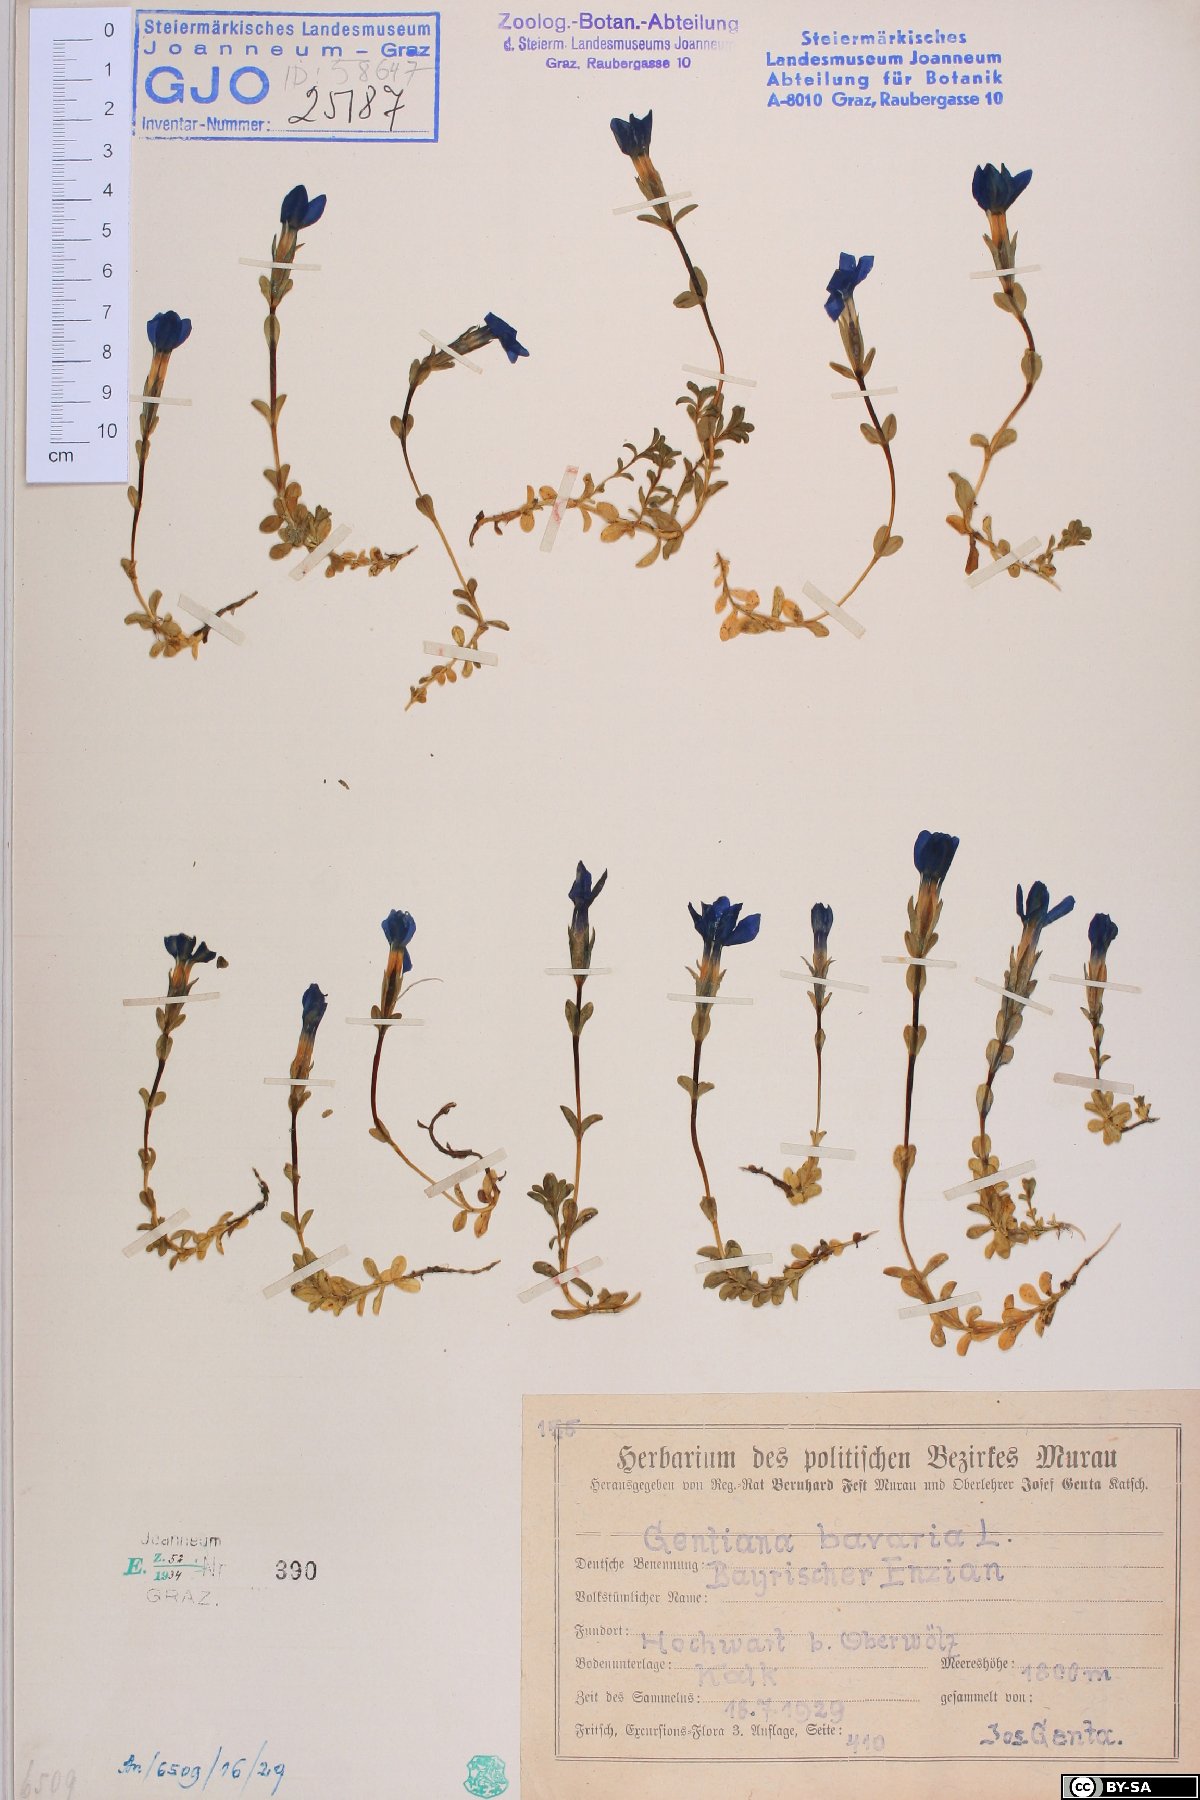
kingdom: Plantae
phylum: Tracheophyta
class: Magnoliopsida
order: Gentianales
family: Gentianaceae
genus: Gentiana
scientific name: Gentiana bavarica
